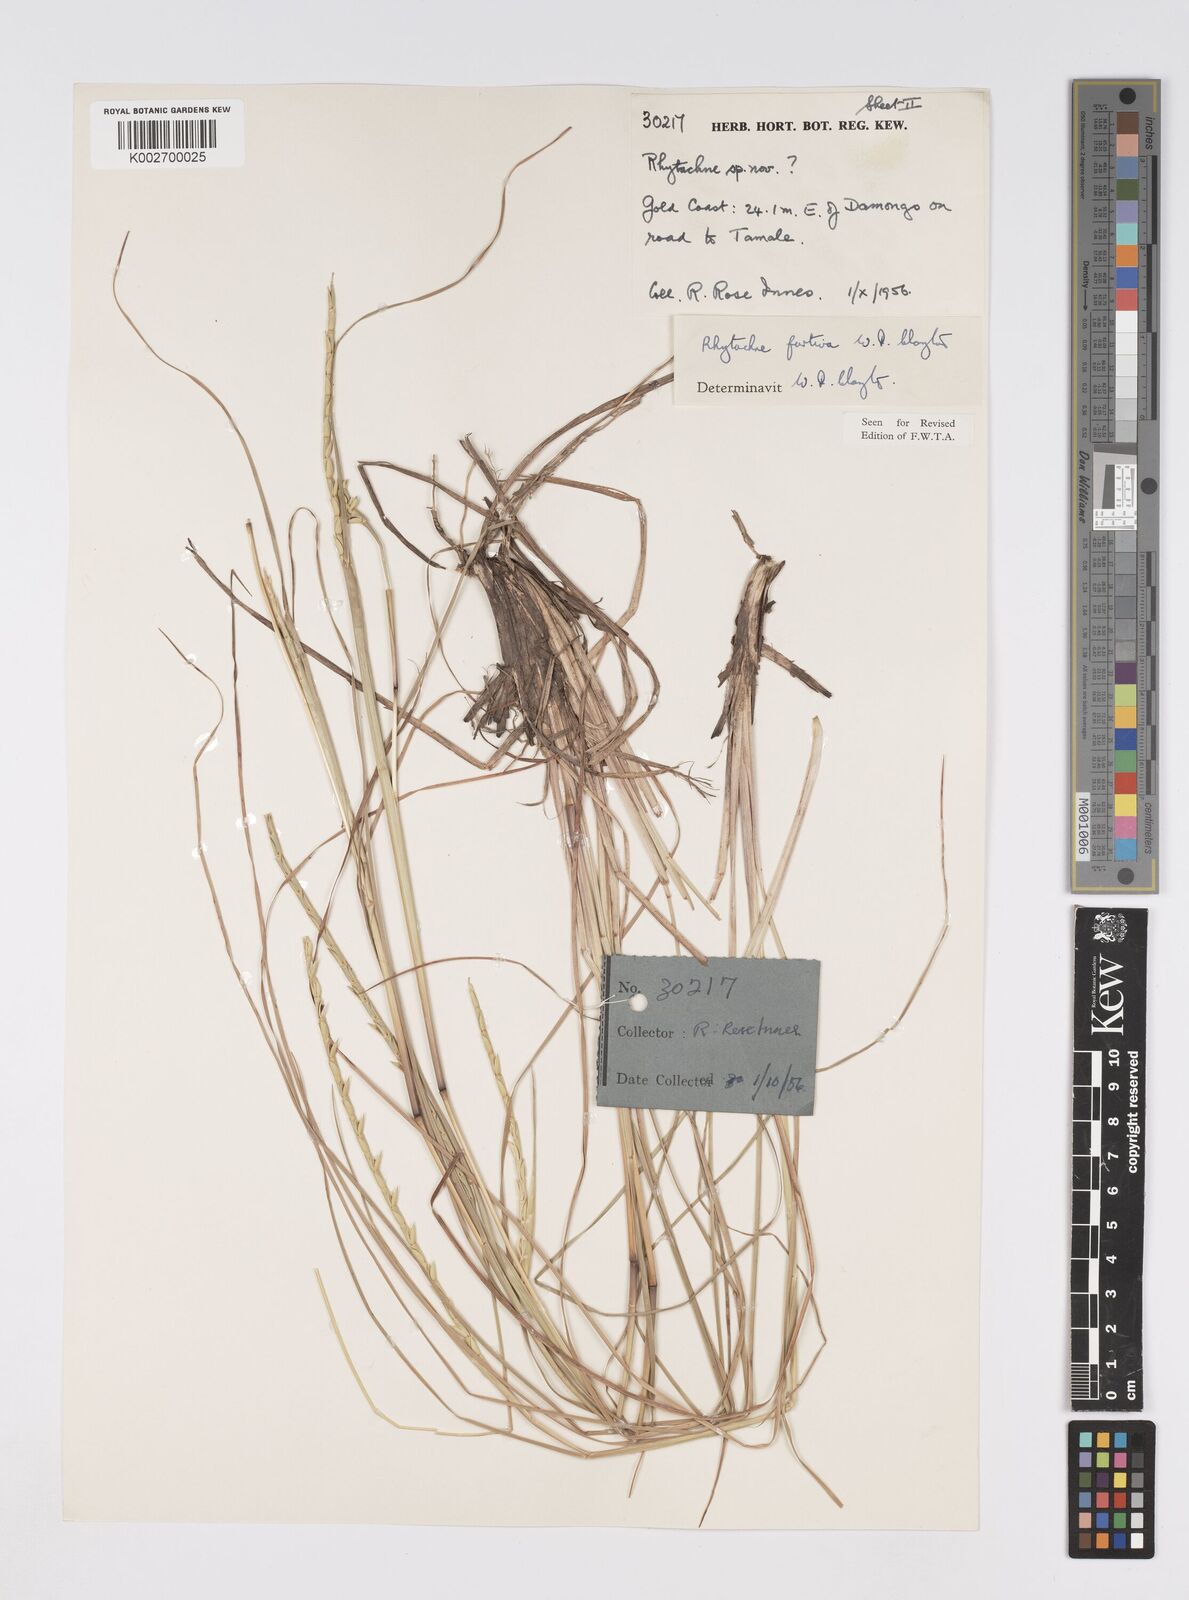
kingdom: Plantae
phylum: Tracheophyta
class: Liliopsida
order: Poales
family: Poaceae
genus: Rhytachne
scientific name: Rhytachne furtiva
